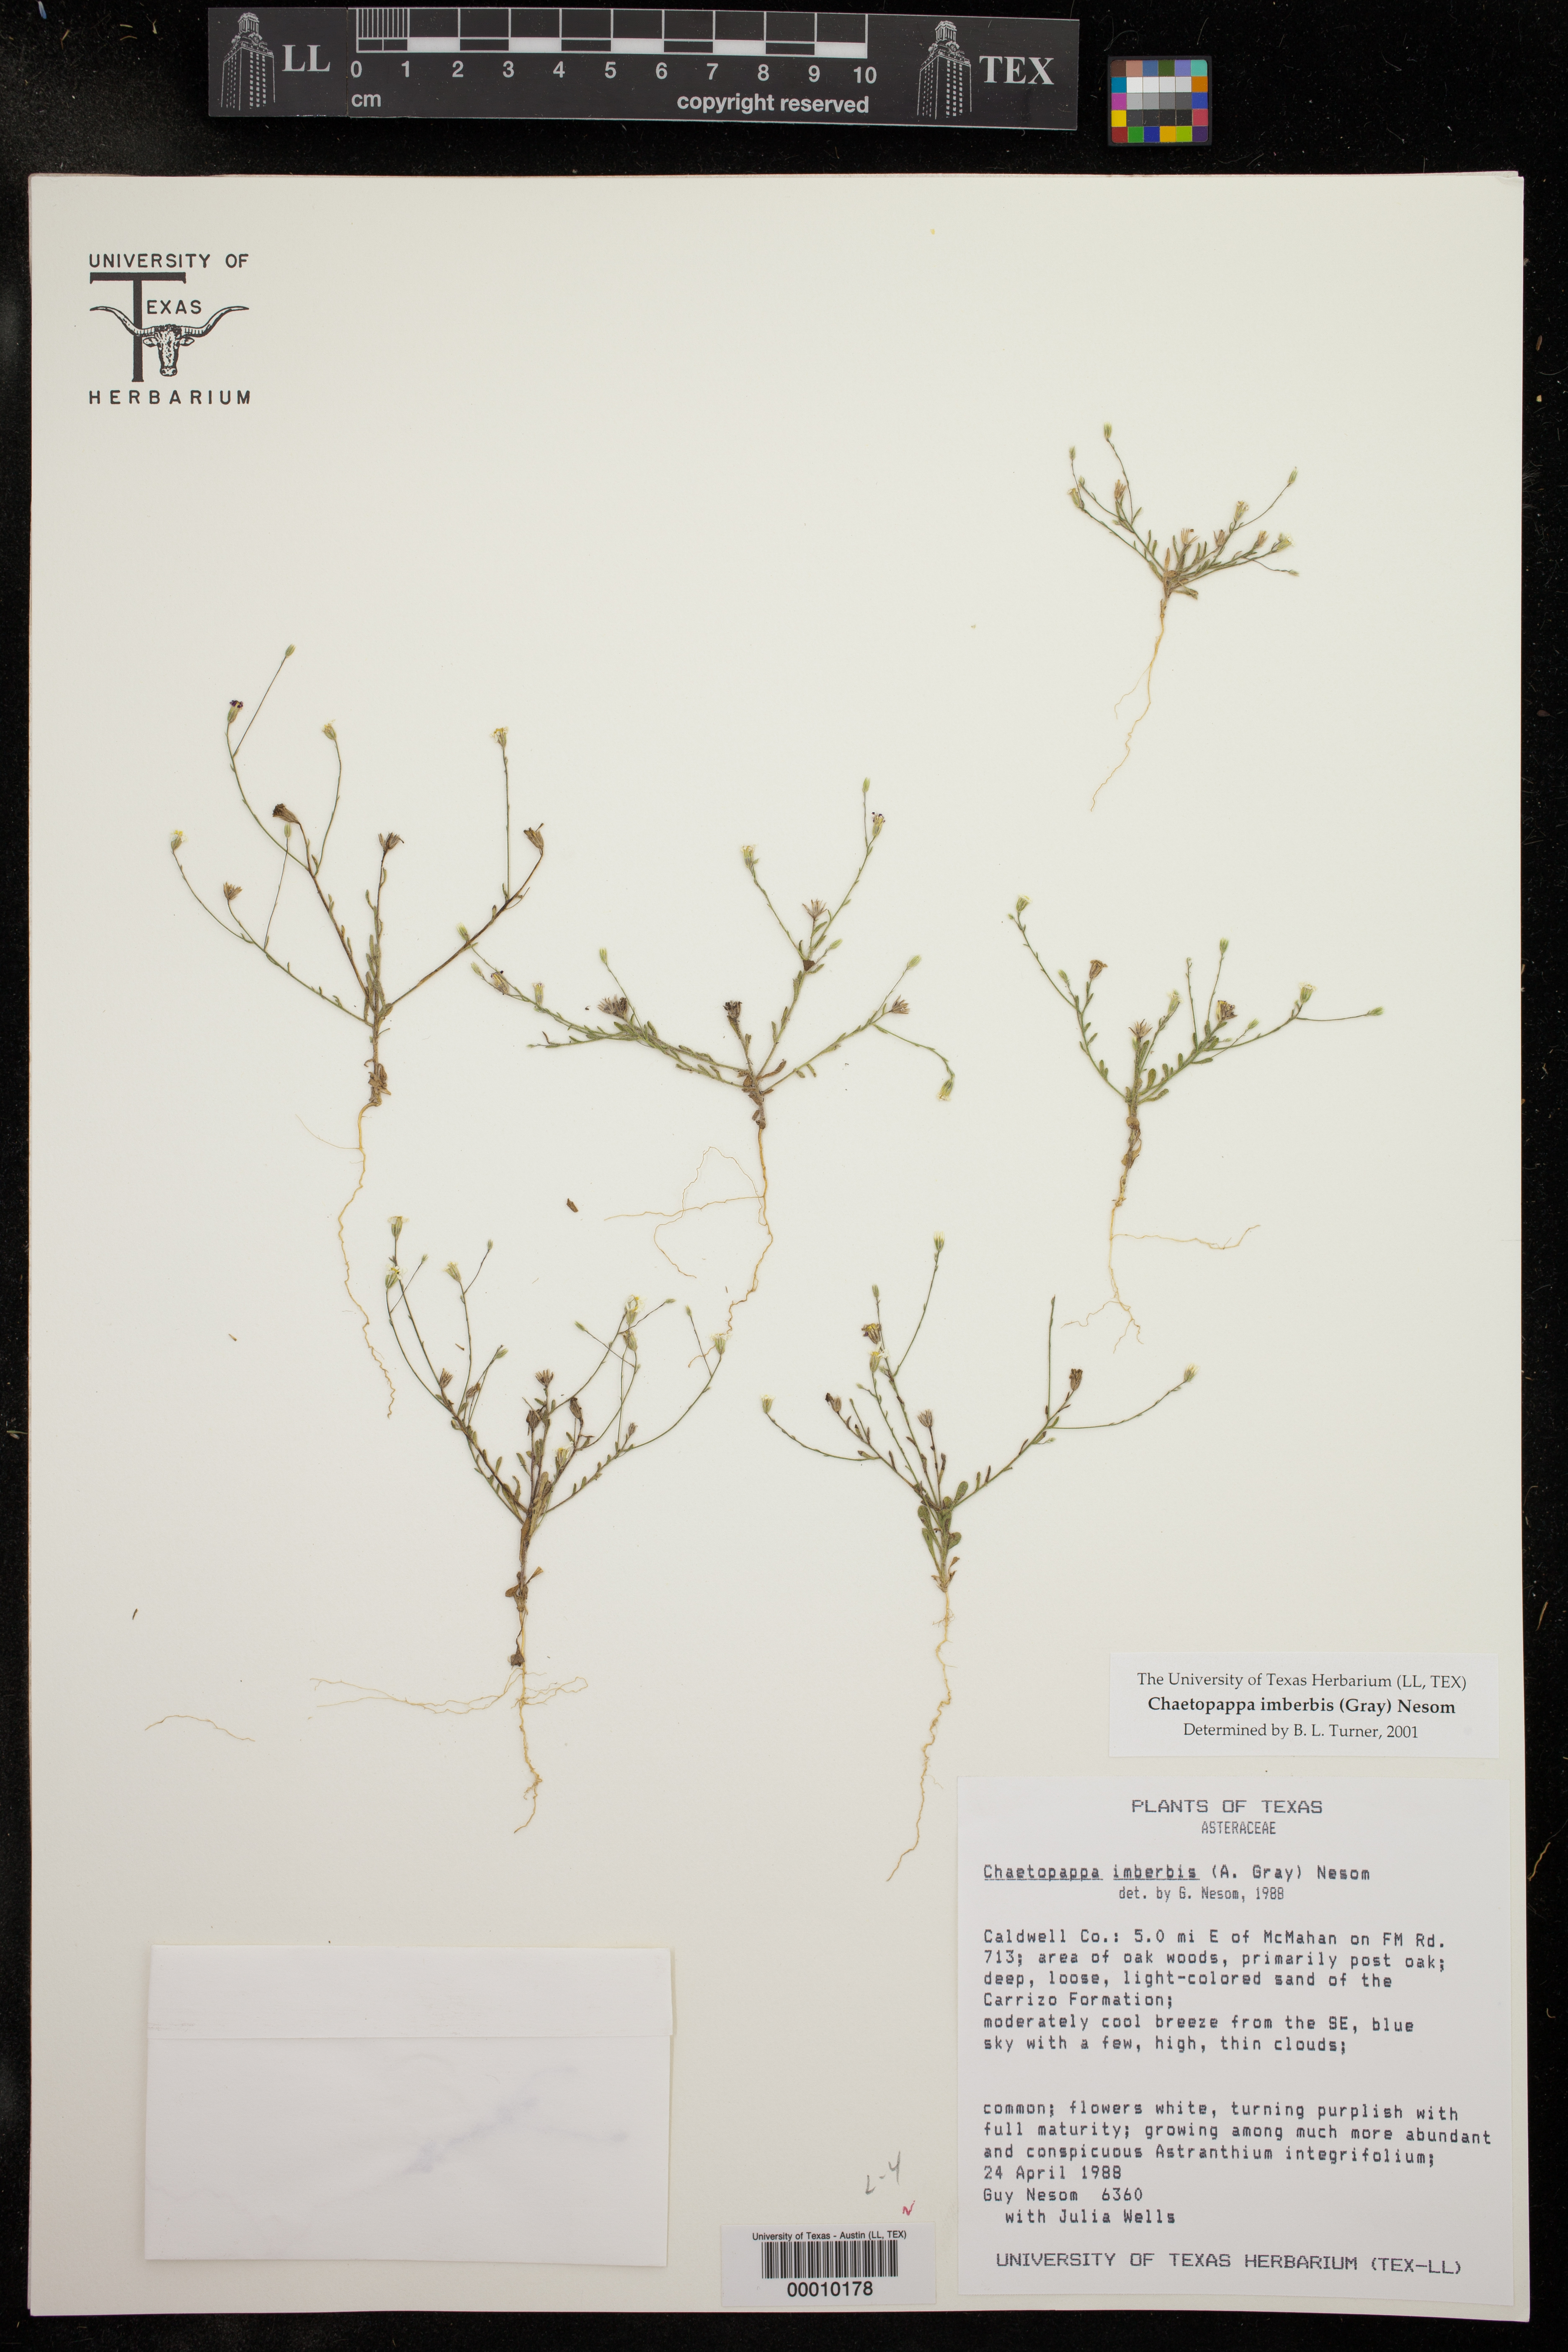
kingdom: Plantae
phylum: Tracheophyta
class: Magnoliopsida
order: Asterales
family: Asteraceae
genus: Chaetopappa
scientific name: Chaetopappa imberbis
